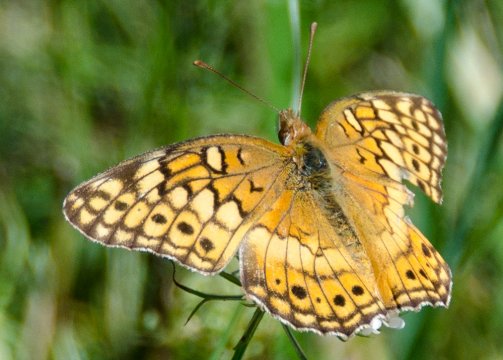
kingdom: Animalia
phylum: Arthropoda
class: Insecta
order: Lepidoptera
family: Nymphalidae
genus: Euptoieta
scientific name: Euptoieta claudia
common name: Variegated Fritillary
